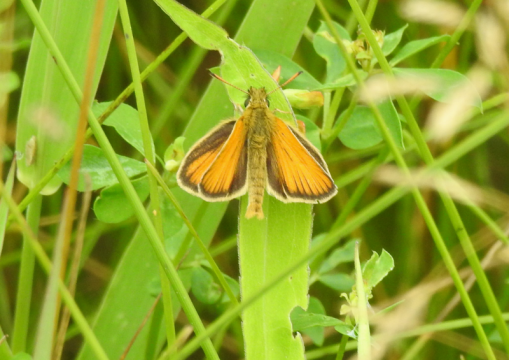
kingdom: Animalia
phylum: Arthropoda
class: Insecta
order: Lepidoptera
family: Hesperiidae
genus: Thymelicus
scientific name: Thymelicus lineola
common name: European Skipper
